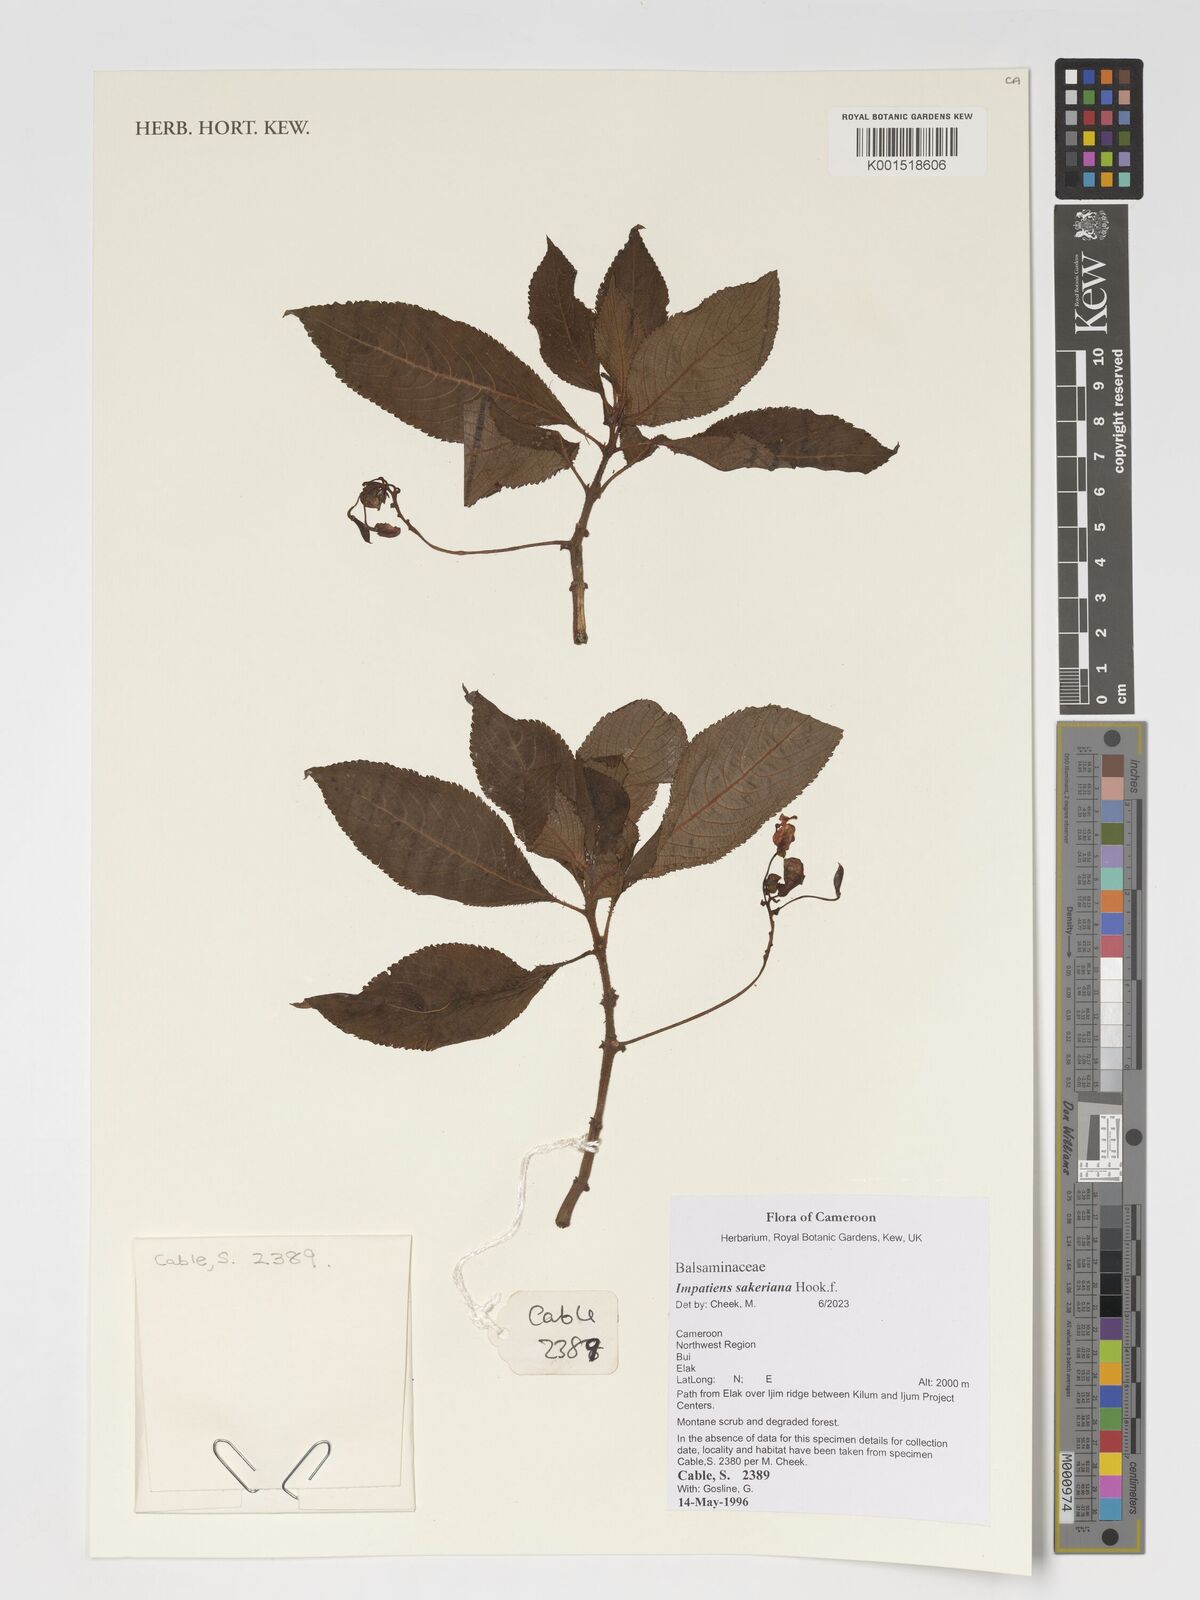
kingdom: Plantae
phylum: Tracheophyta
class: Magnoliopsida
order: Ericales
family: Balsaminaceae
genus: Impatiens
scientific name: Impatiens sakeriana
